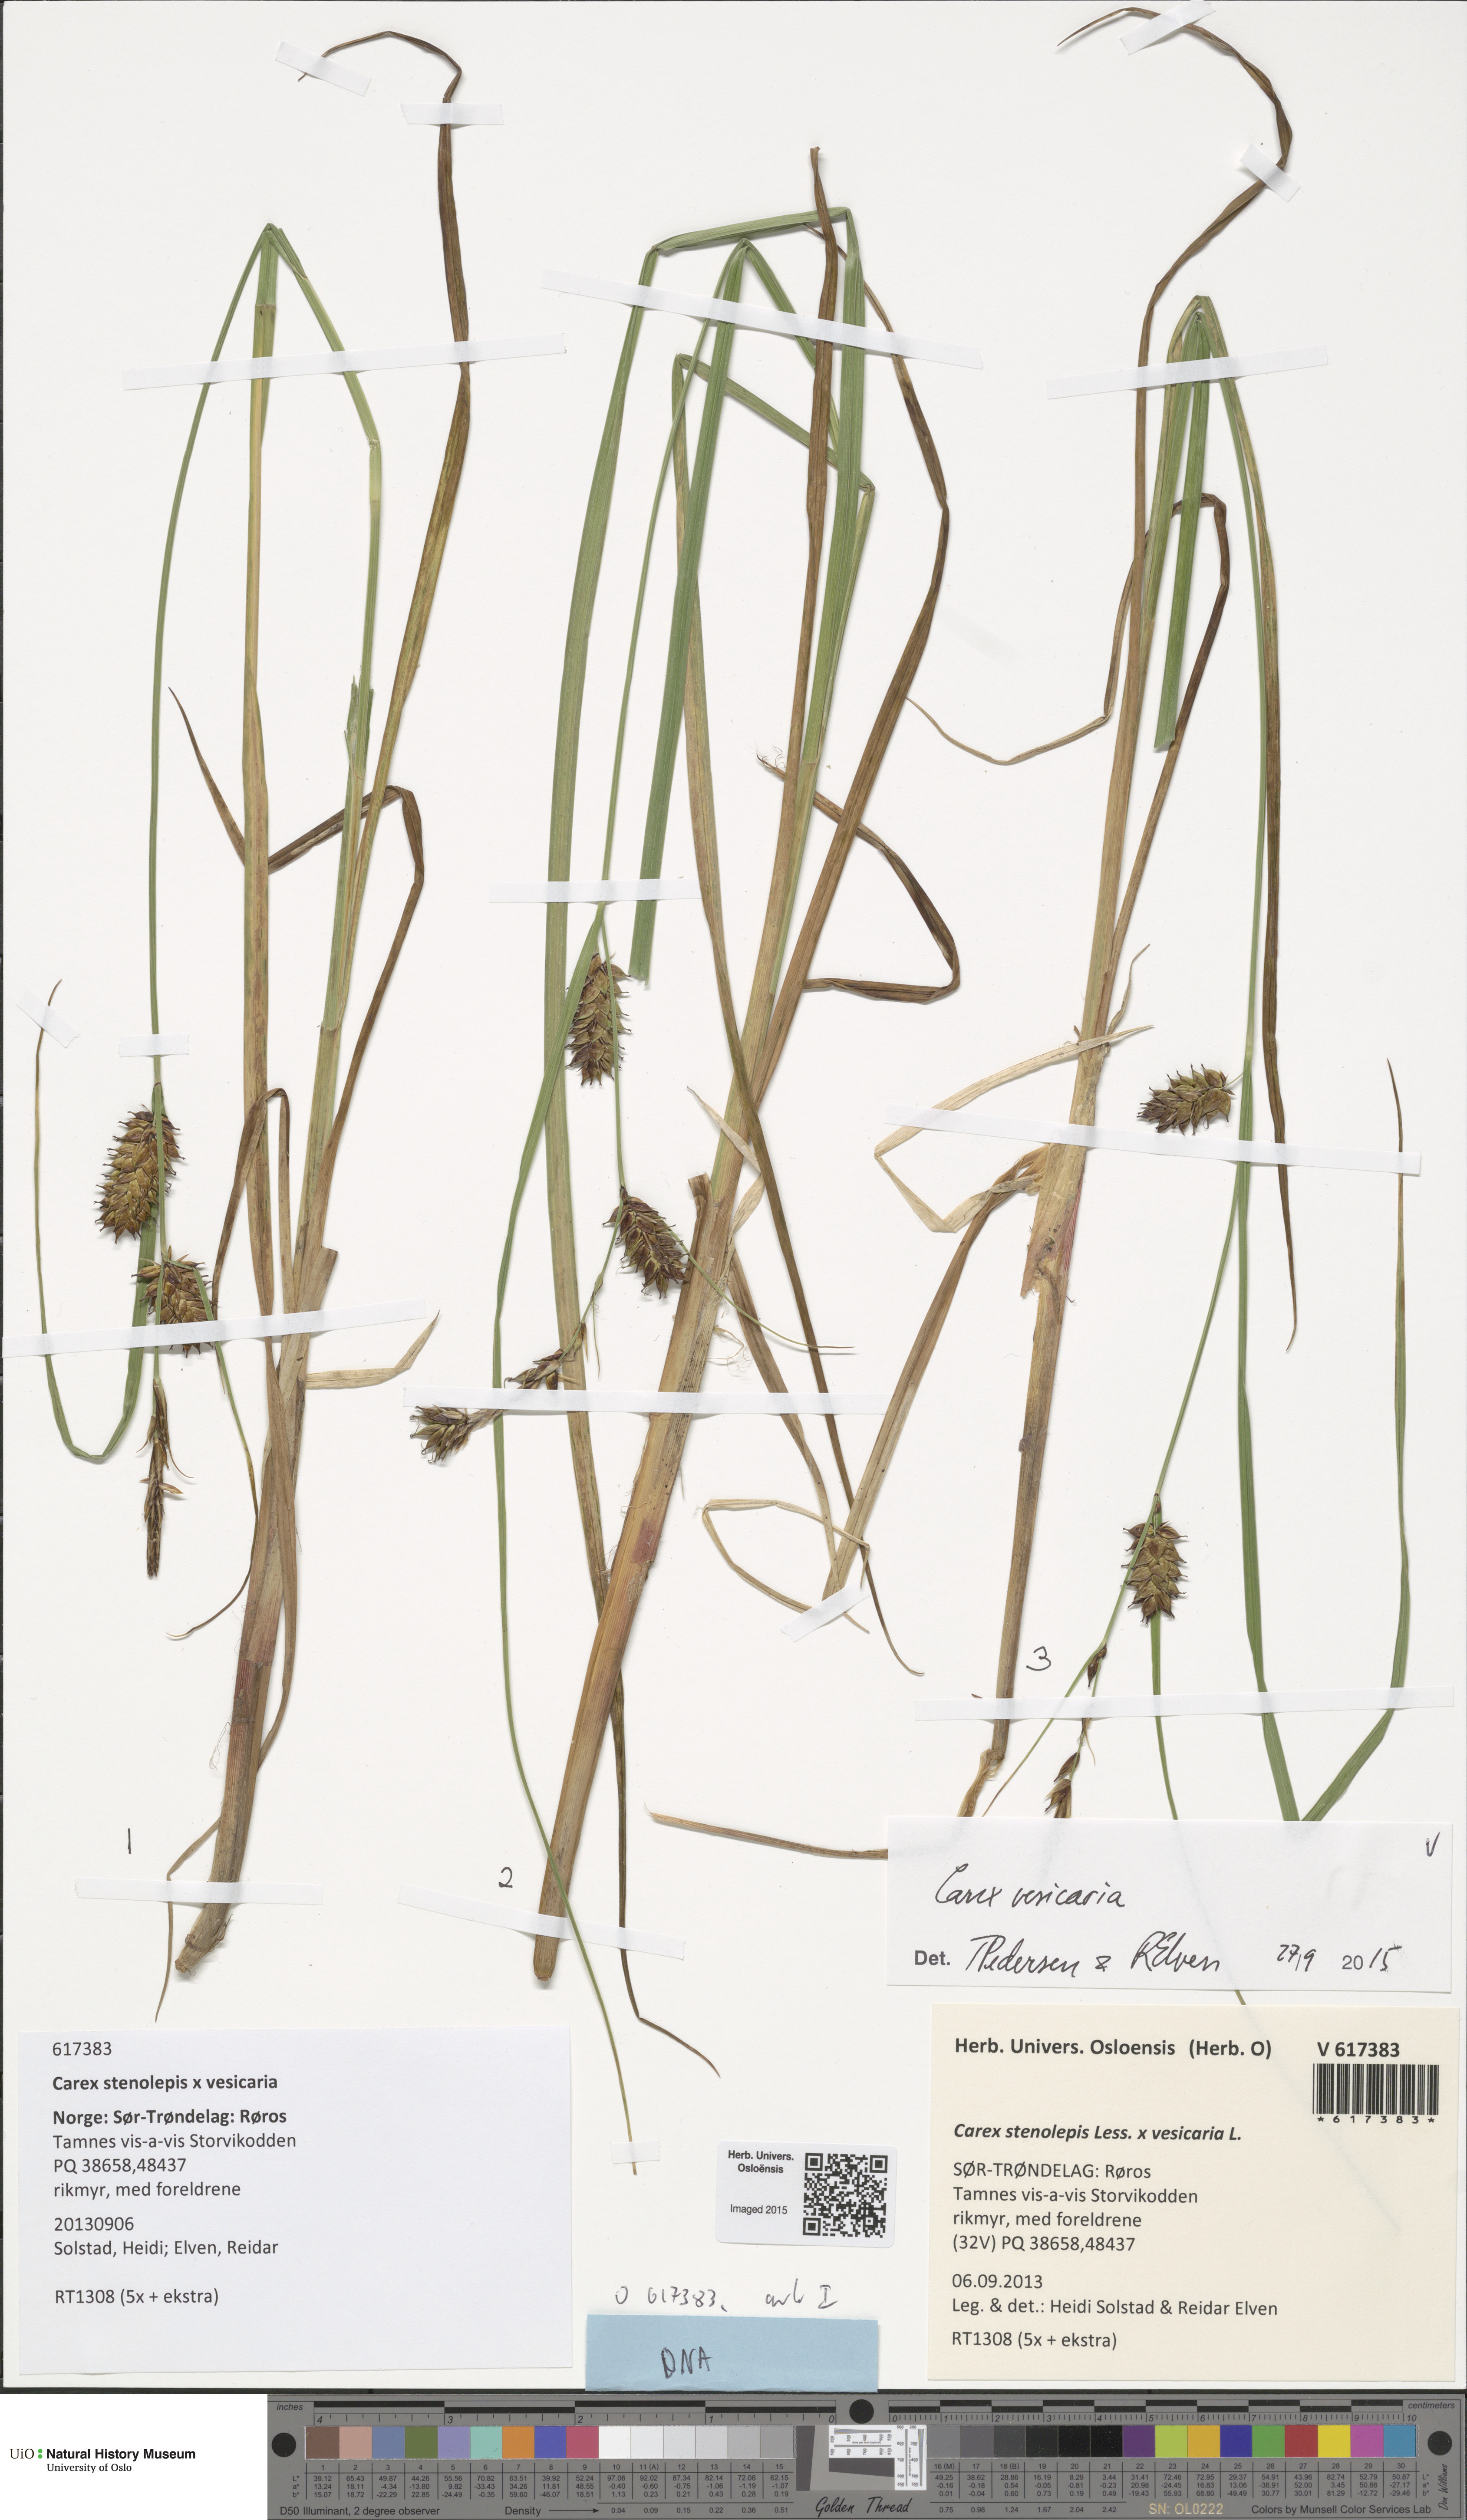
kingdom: Plantae
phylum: Tracheophyta
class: Liliopsida
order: Poales
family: Cyperaceae
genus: Carex
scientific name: Carex vesicaria
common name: Bladder-sedge
